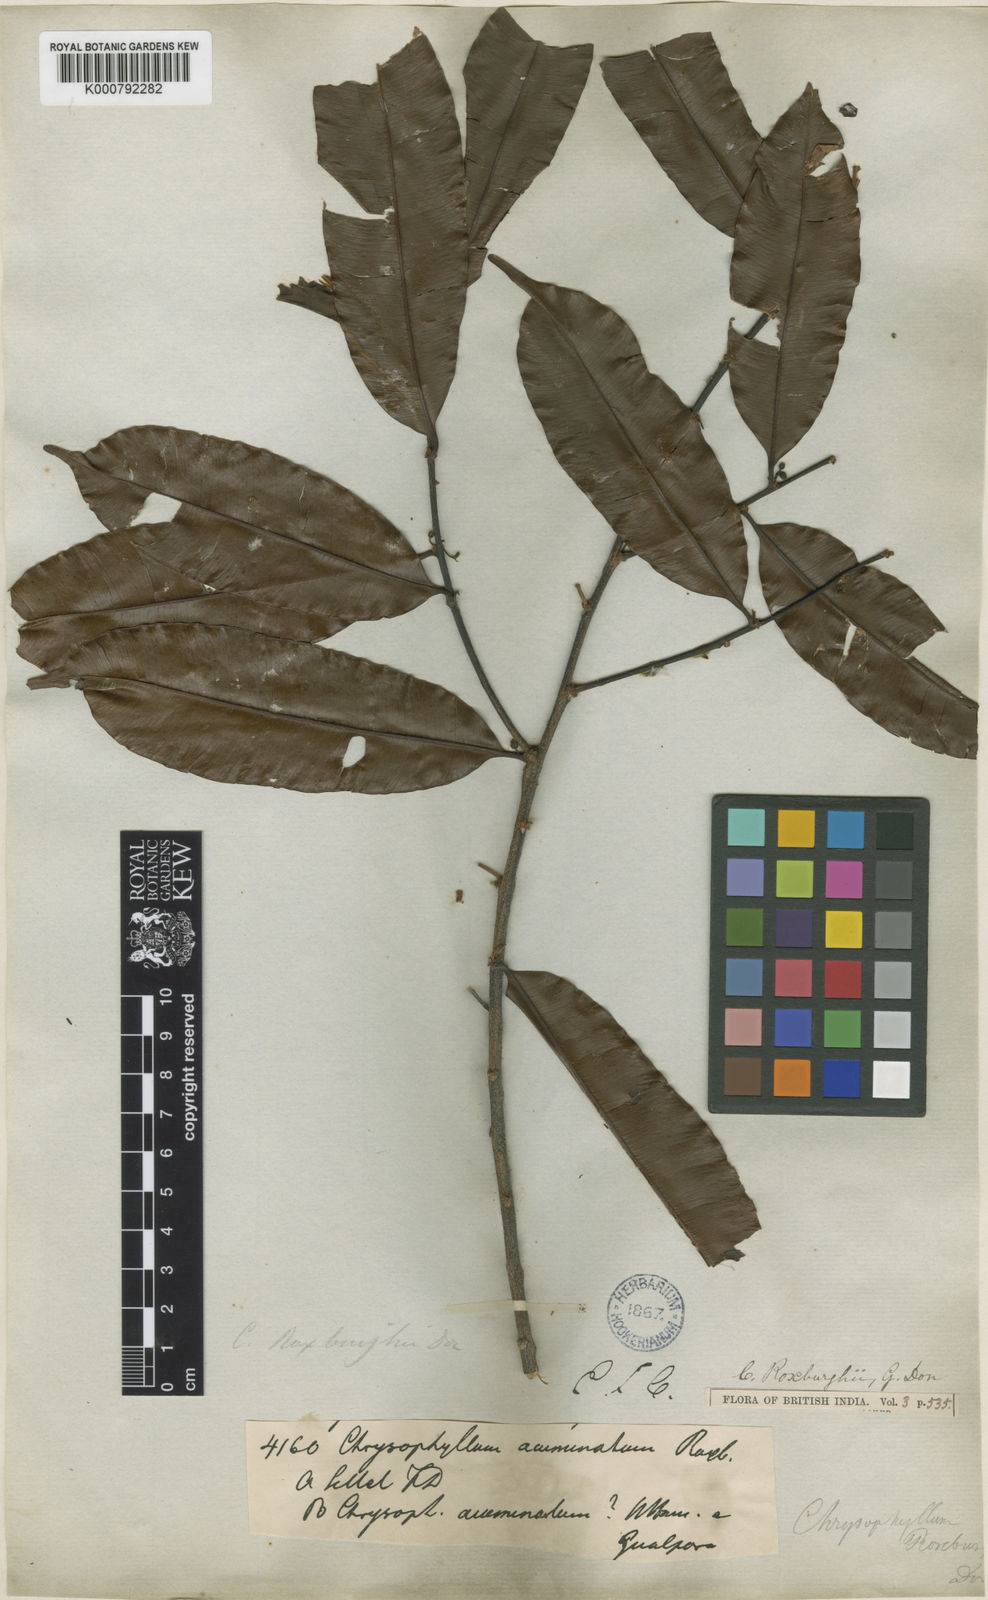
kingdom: Plantae
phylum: Tracheophyta
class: Magnoliopsida
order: Ericales
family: Sapotaceae
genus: Donella
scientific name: Donella lanceolata
